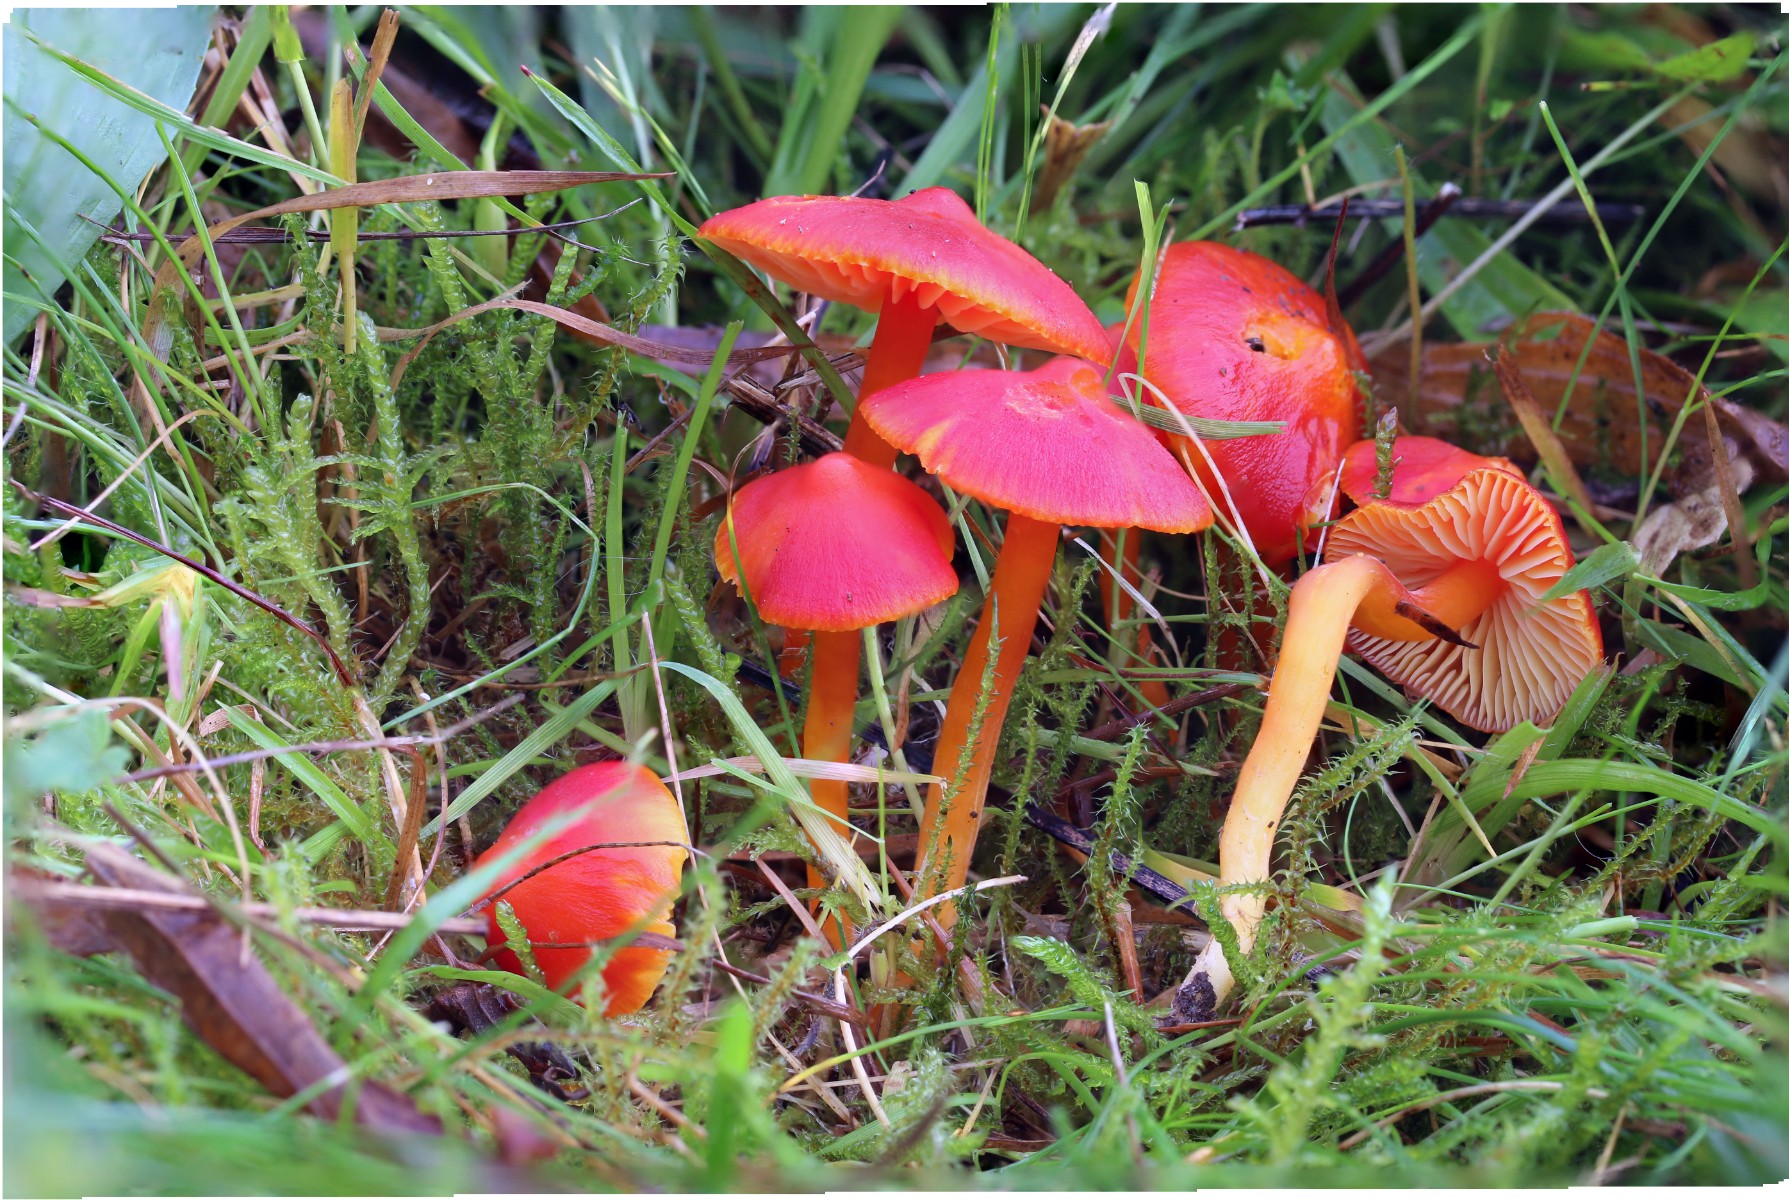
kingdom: Fungi
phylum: Basidiomycota
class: Agaricomycetes
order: Agaricales
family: Hygrophoraceae
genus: Hygrocybe
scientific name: Hygrocybe coccinea
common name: cinnober-vokshat
